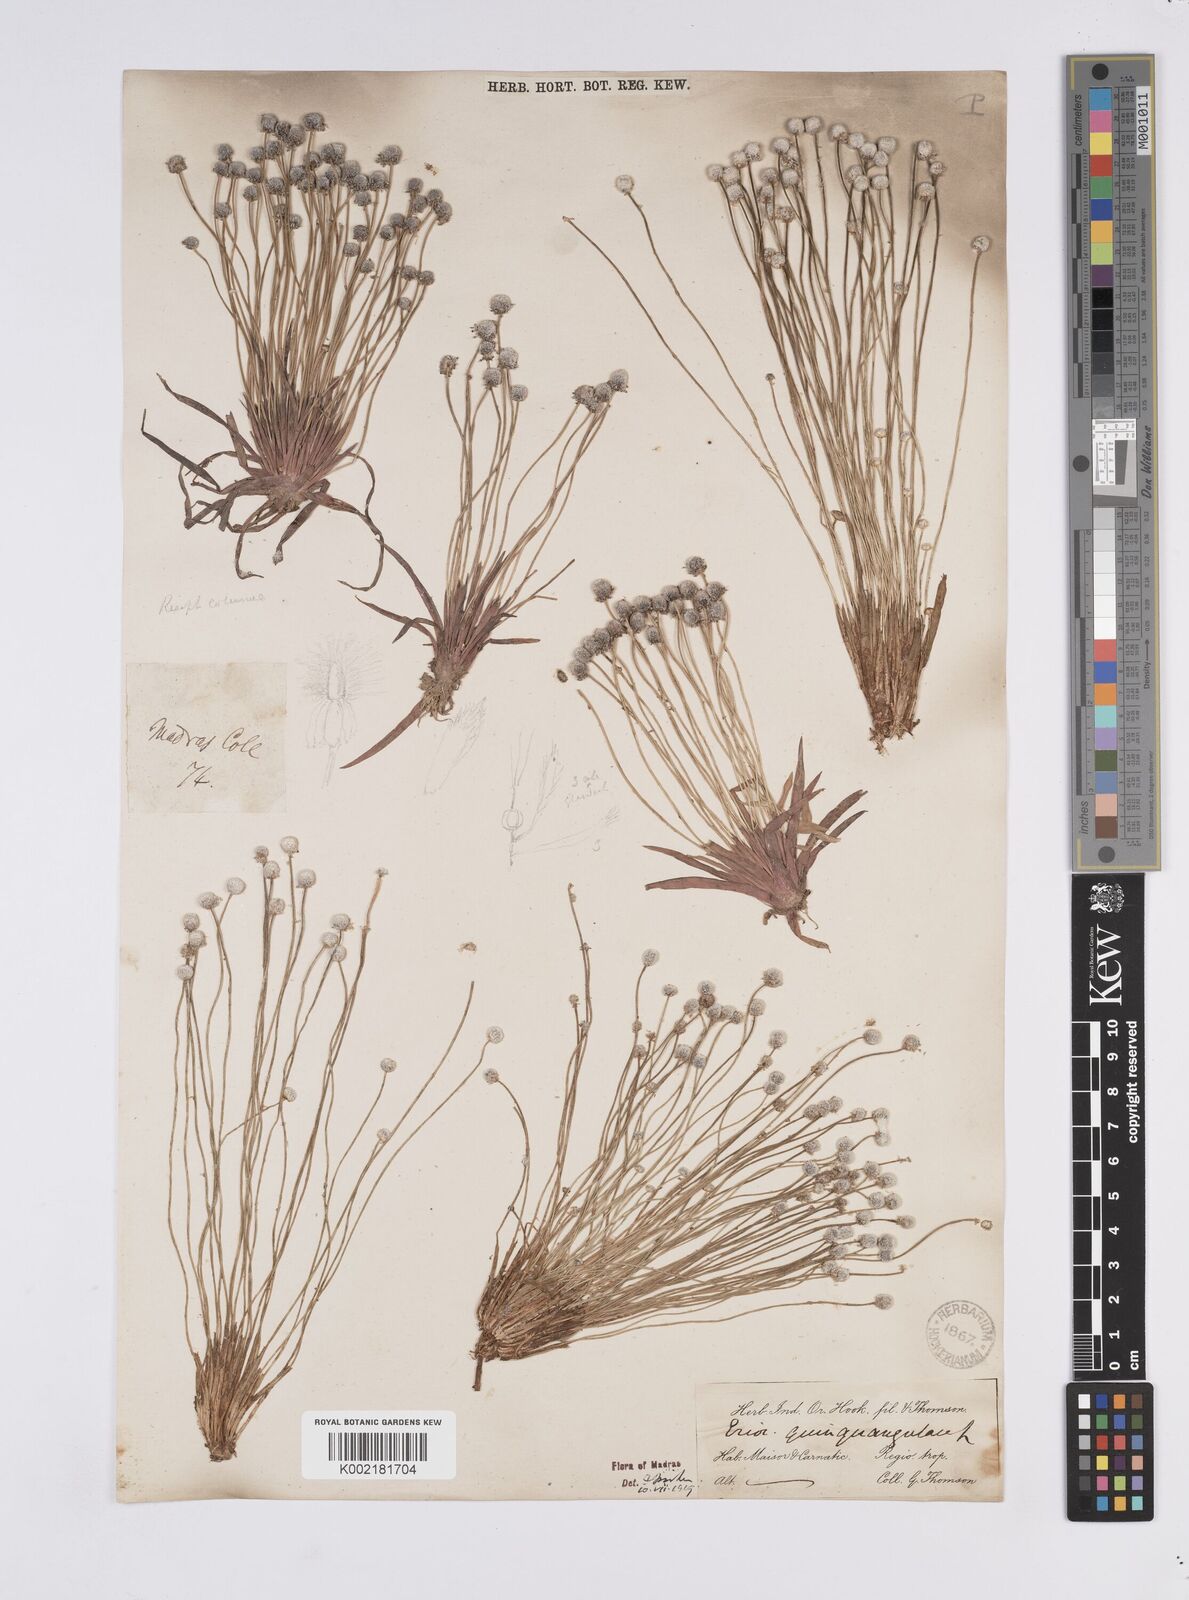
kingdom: Plantae
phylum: Tracheophyta
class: Liliopsida
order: Poales
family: Eriocaulaceae
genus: Eriocaulon
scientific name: Eriocaulon quinquangulare
